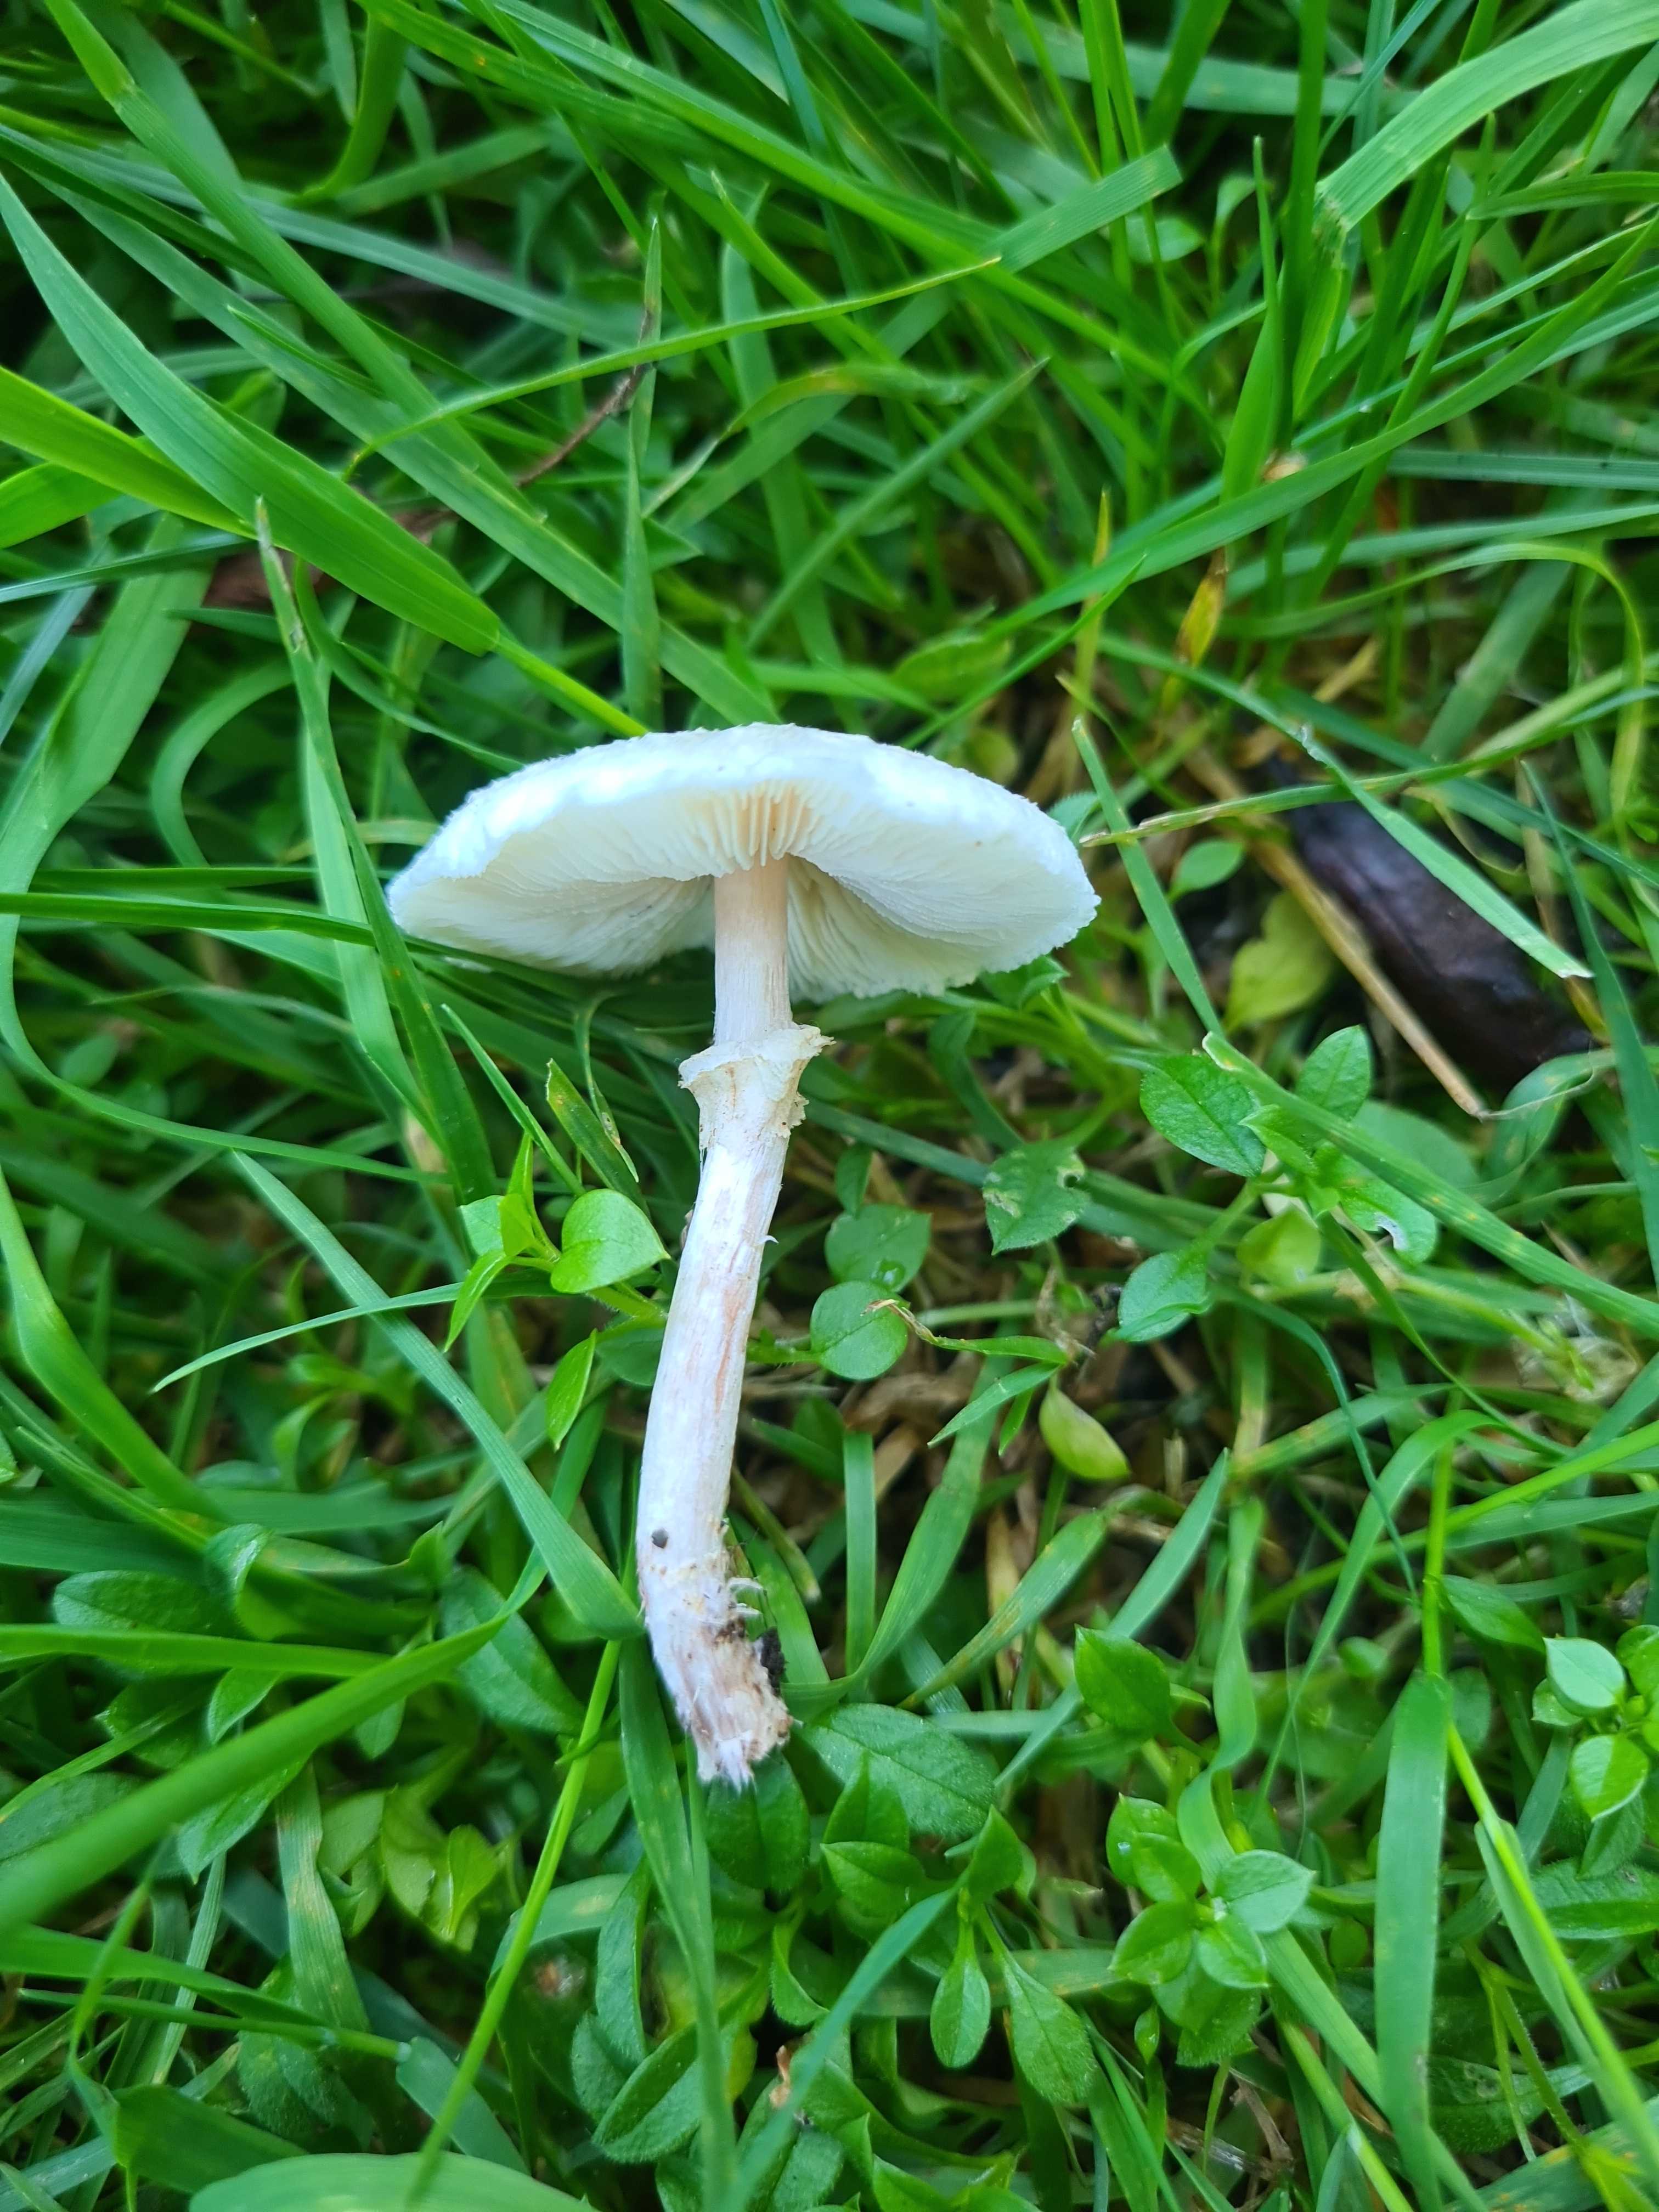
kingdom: Fungi
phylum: Basidiomycota
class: Agaricomycetes
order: Agaricales
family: Agaricaceae
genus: Lepiota
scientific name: Lepiota cristata
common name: stinkende parasolhat
